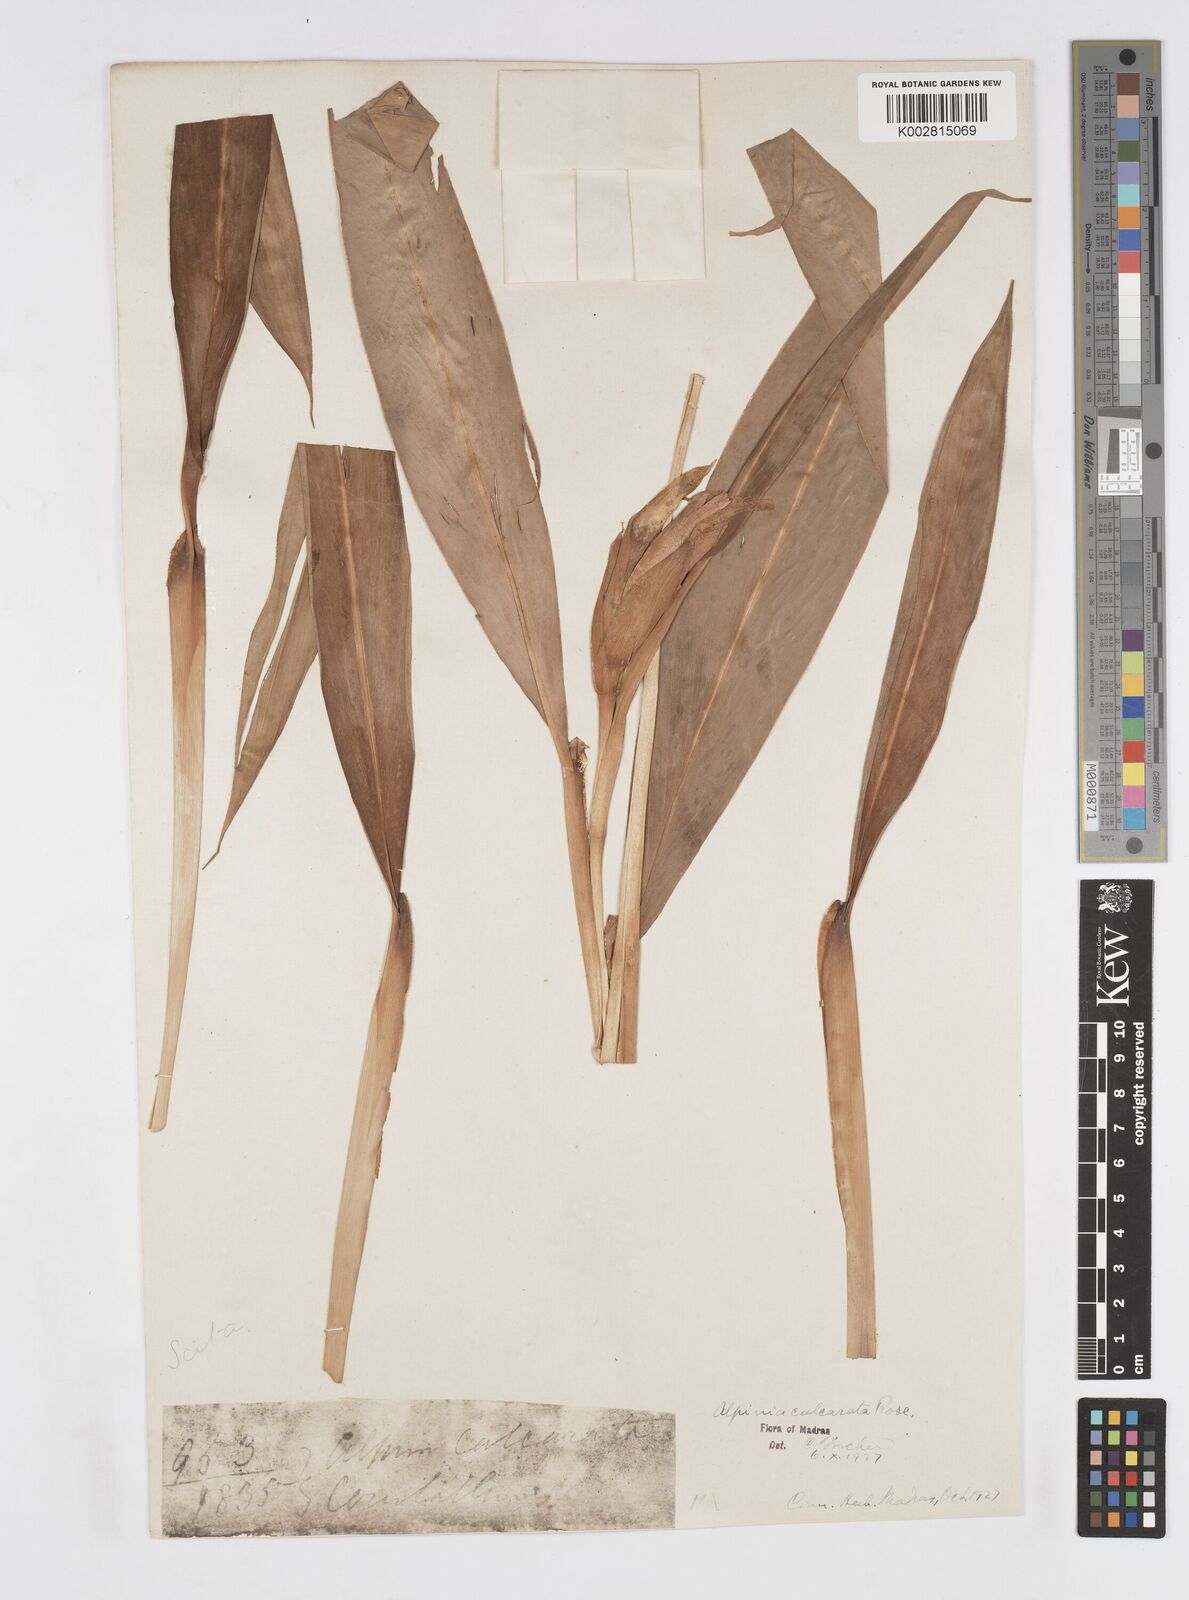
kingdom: Plantae
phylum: Tracheophyta
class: Liliopsida
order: Zingiberales
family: Zingiberaceae
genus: Alpinia
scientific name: Alpinia calcarata
